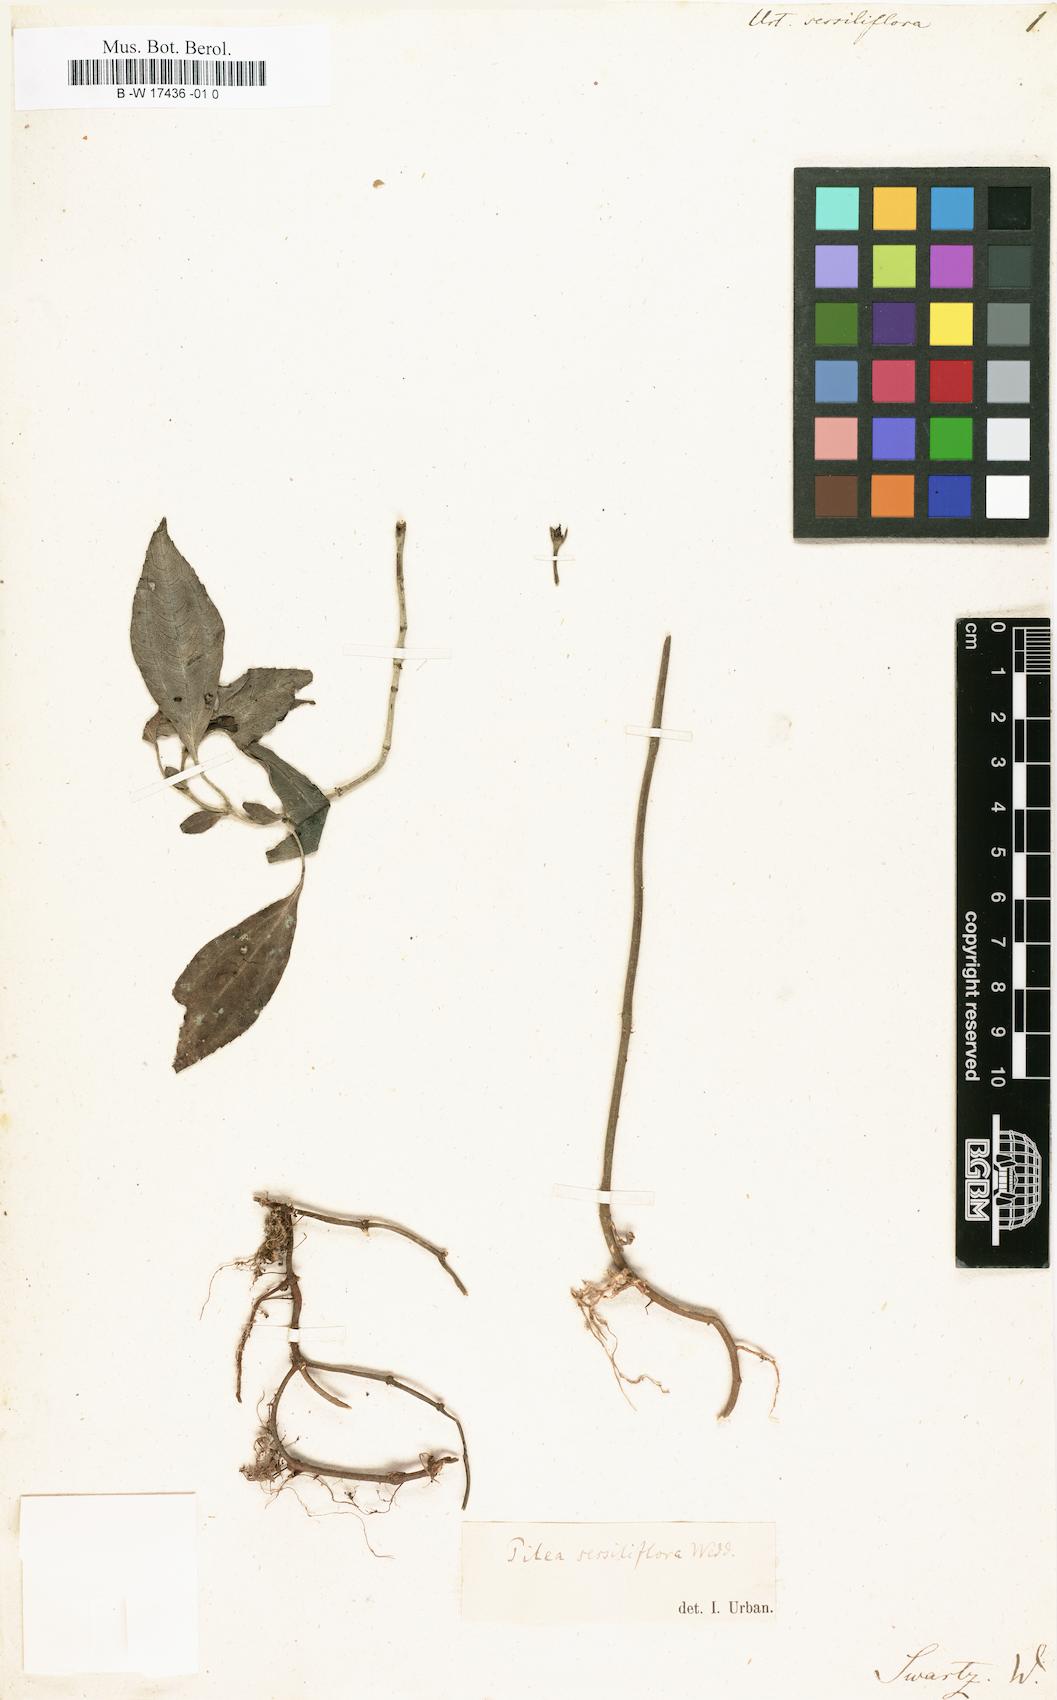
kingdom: Plantae
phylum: Tracheophyta
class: Magnoliopsida
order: Rosales
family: Urticaceae
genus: Pilea
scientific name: Pilea sessiliflora
